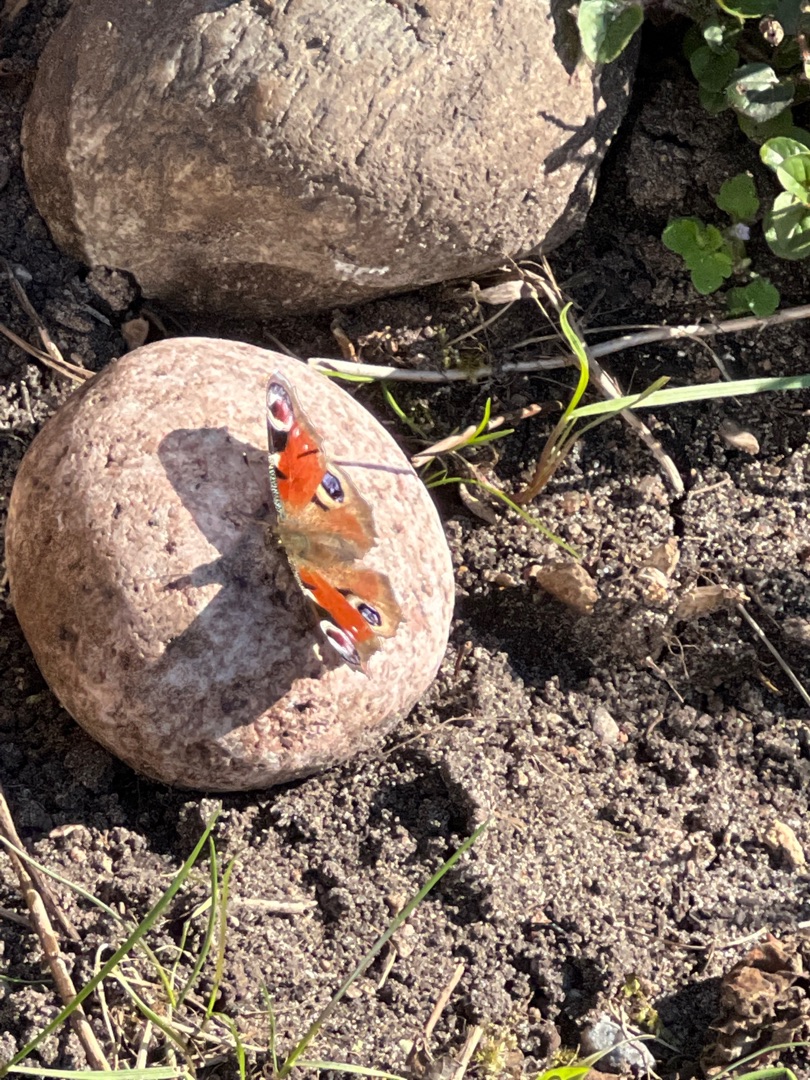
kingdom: Animalia
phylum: Arthropoda
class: Insecta
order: Lepidoptera
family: Nymphalidae
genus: Aglais
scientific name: Aglais io
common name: Dagpåfugleøje
